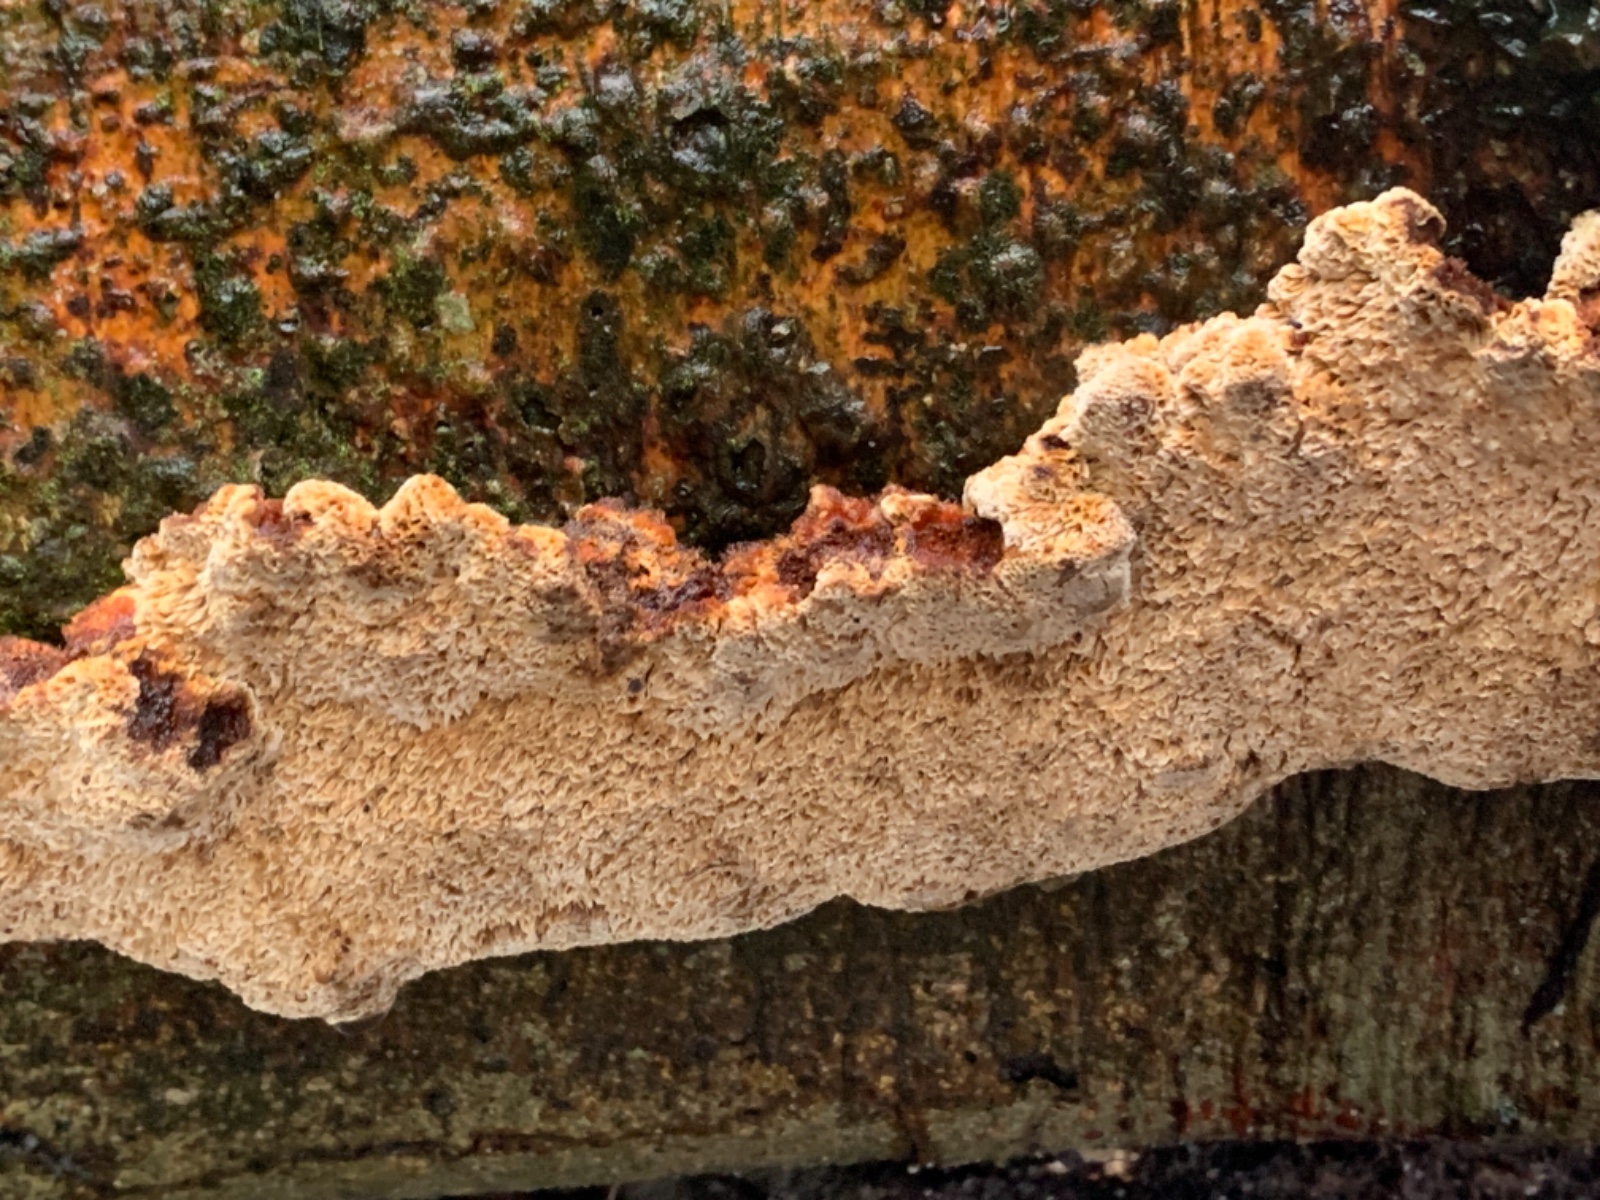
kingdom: Fungi
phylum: Basidiomycota
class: Agaricomycetes
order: Hymenochaetales
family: Hymenochaetaceae
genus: Mensularia
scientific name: Mensularia nodulosa
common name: bøge-spejlporesvamp
